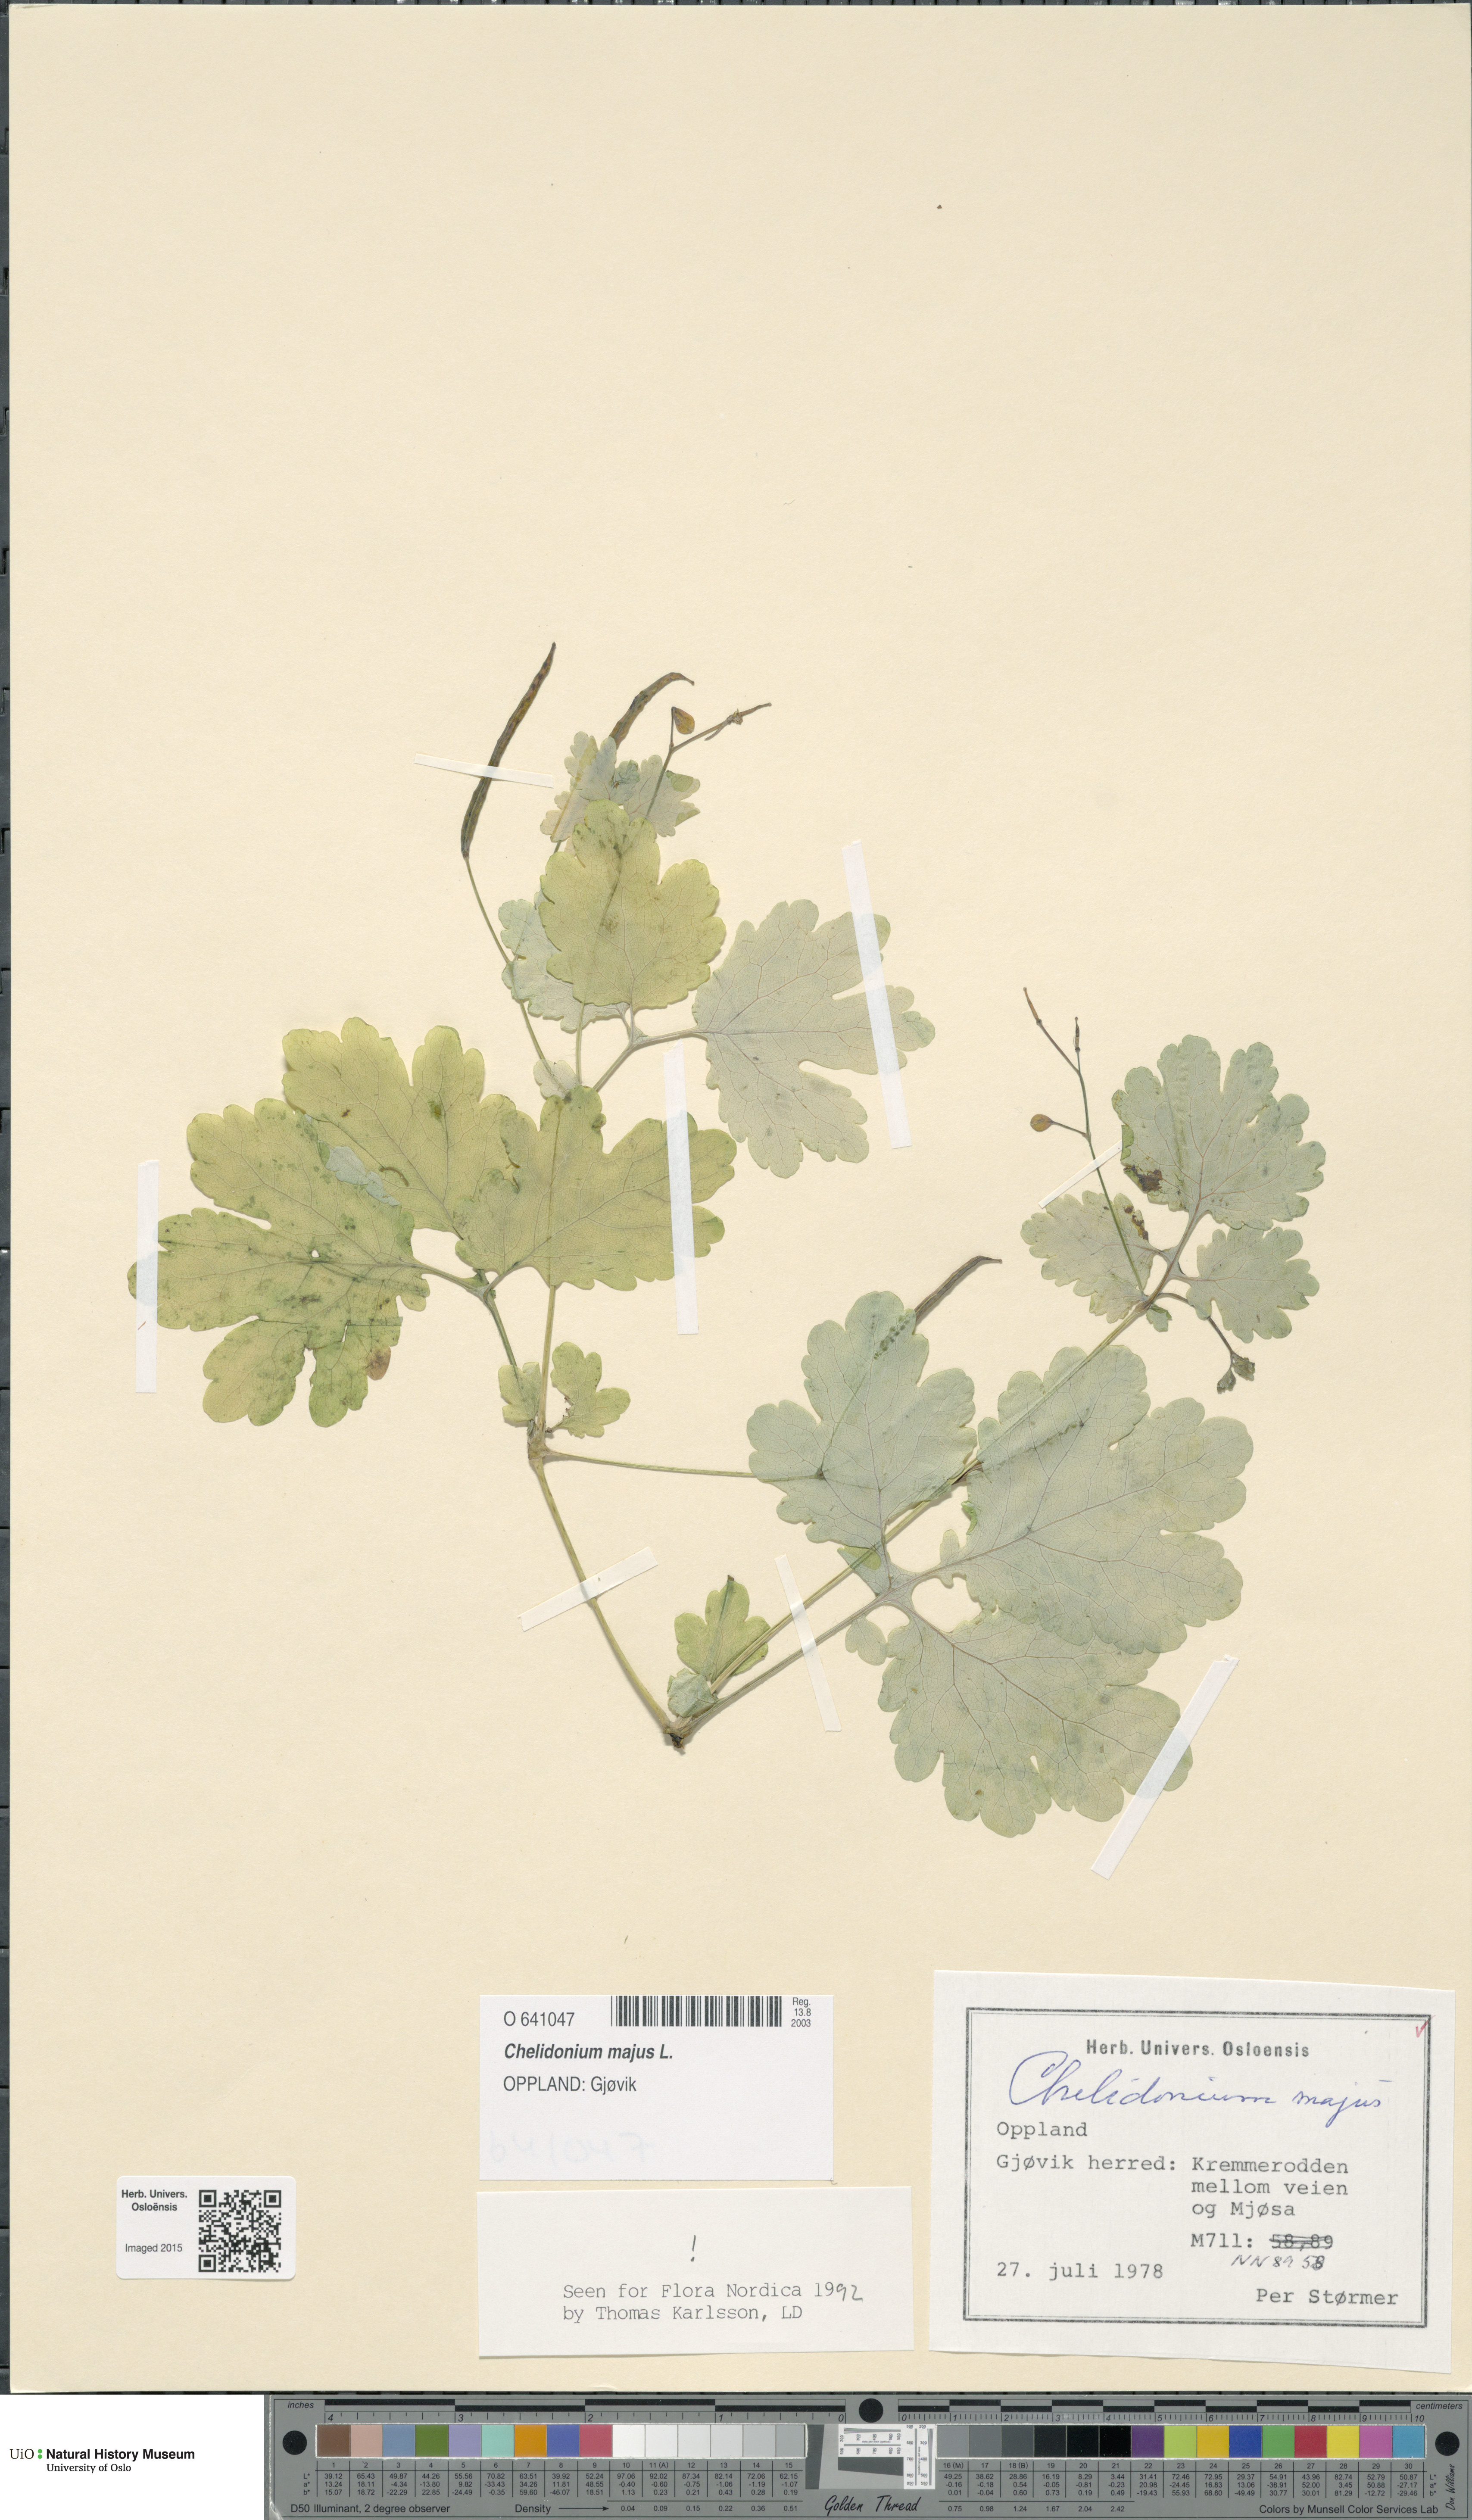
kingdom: Plantae
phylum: Tracheophyta
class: Magnoliopsida
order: Ranunculales
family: Papaveraceae
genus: Chelidonium
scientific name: Chelidonium majus
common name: Greater celandine
